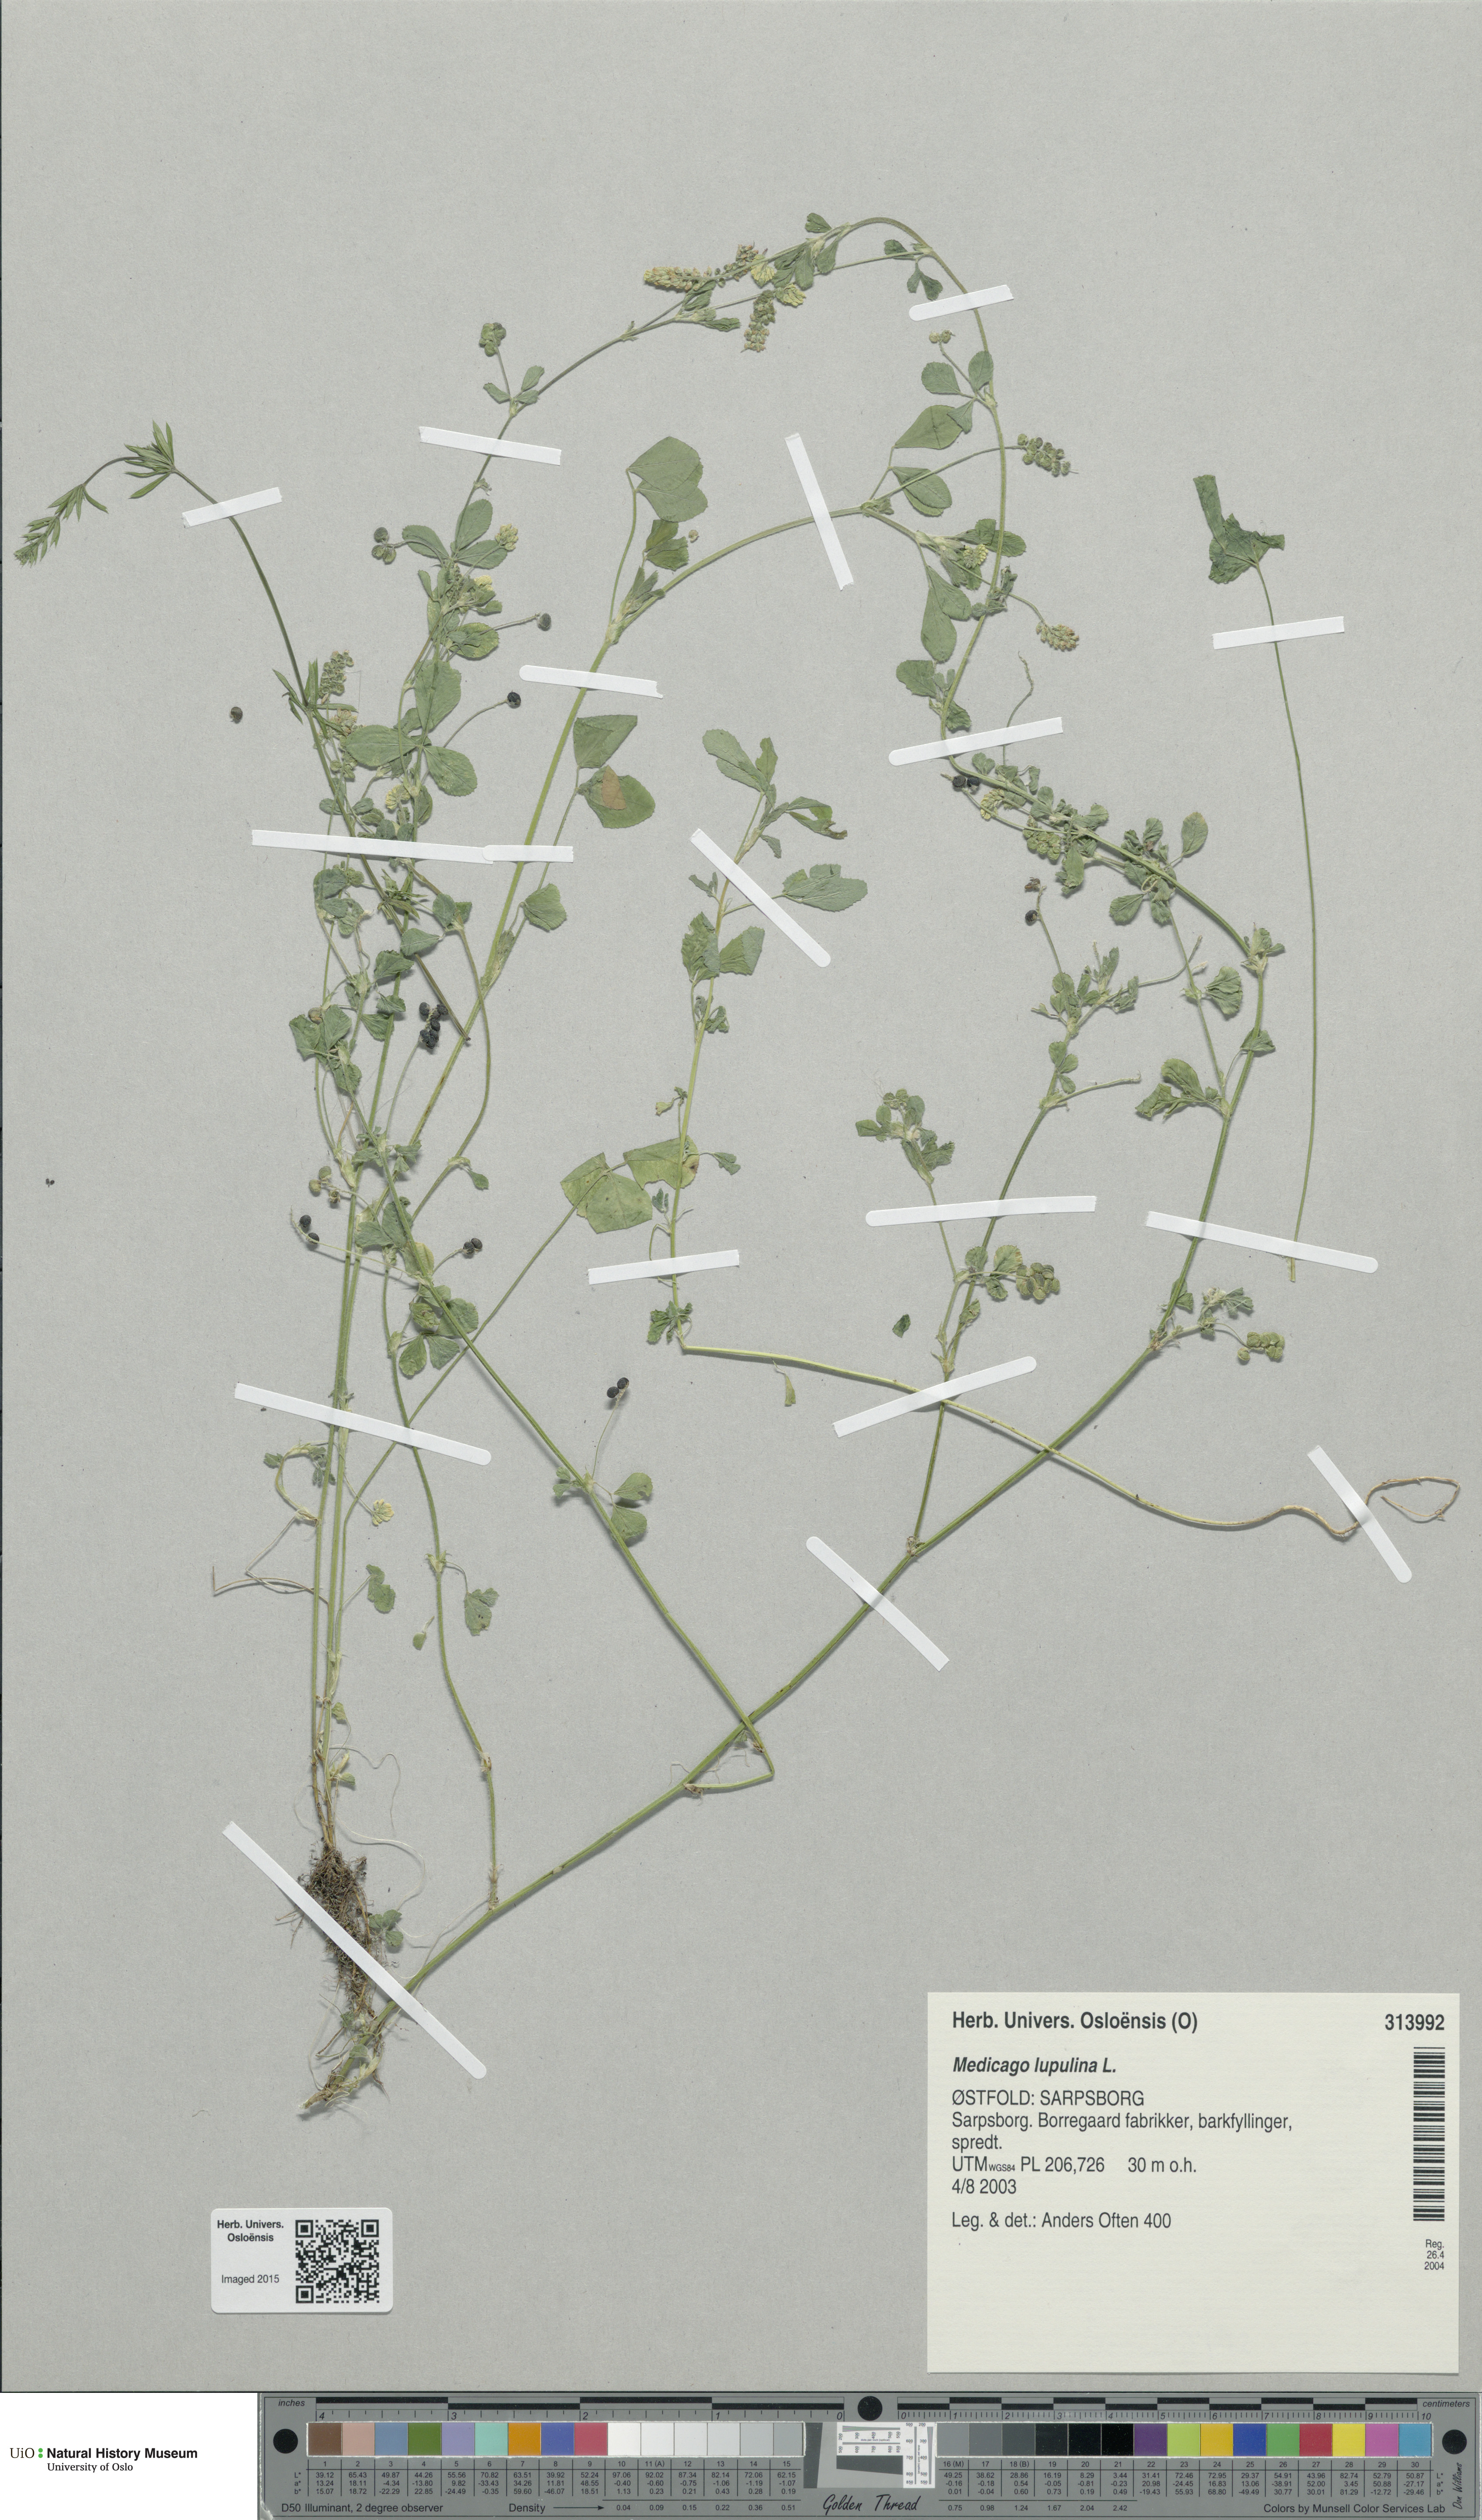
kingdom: Plantae
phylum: Tracheophyta
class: Magnoliopsida
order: Fabales
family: Fabaceae
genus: Medicago
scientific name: Medicago lupulina
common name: Black medick
